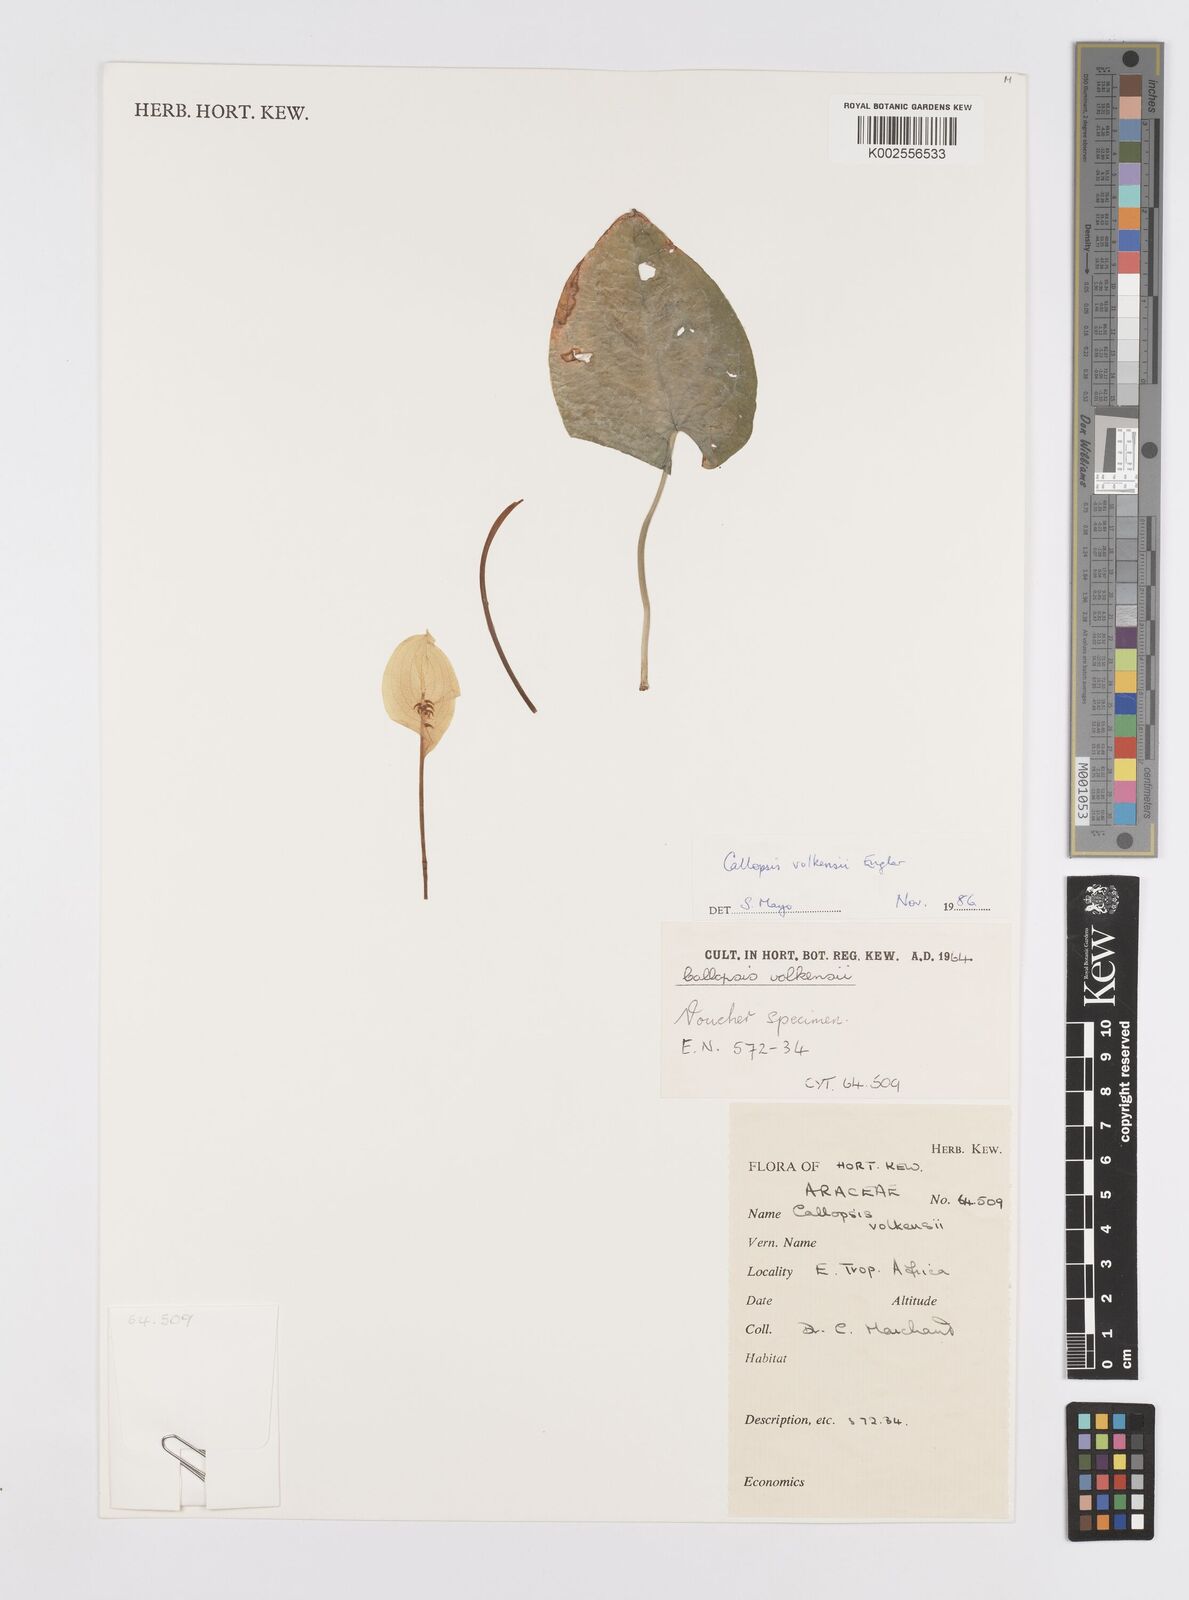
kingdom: Plantae
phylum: Tracheophyta
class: Liliopsida
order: Alismatales
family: Araceae
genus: Callopsis
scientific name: Callopsis volkensii
